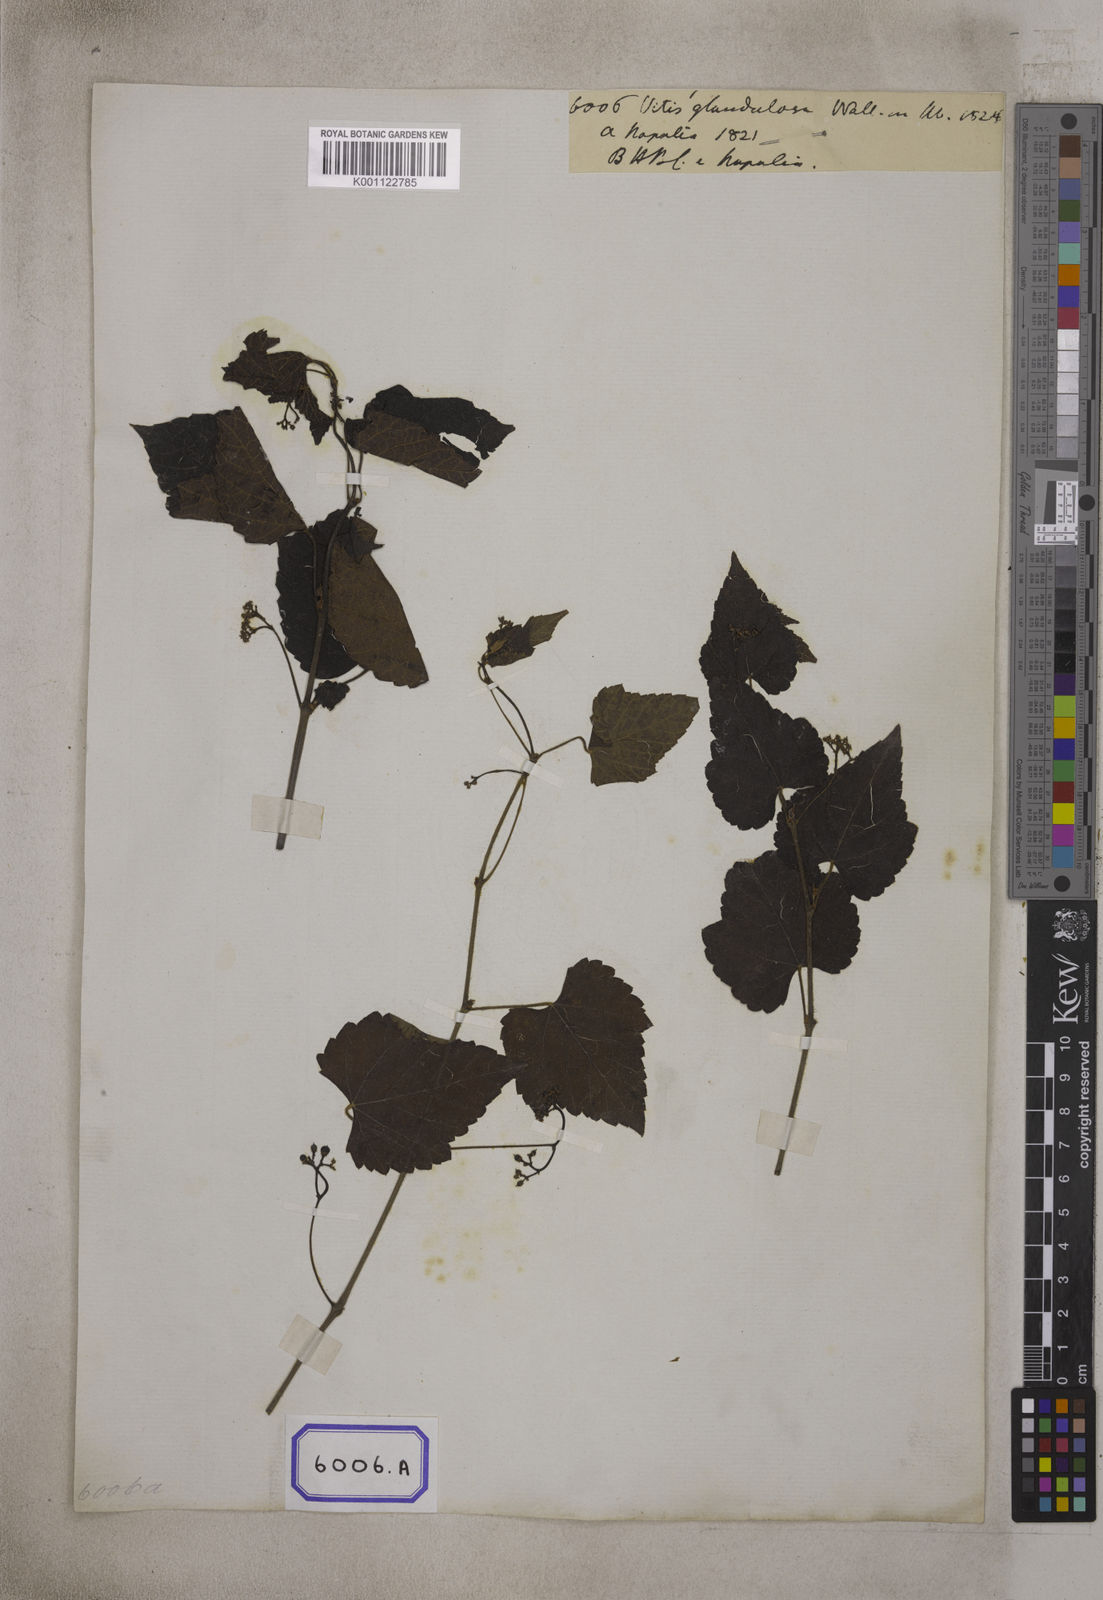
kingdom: Plantae
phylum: Tracheophyta
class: Magnoliopsida
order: Vitales
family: Vitaceae
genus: Ampelopsis
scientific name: Ampelopsis glandulosa
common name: Amur peppervine
